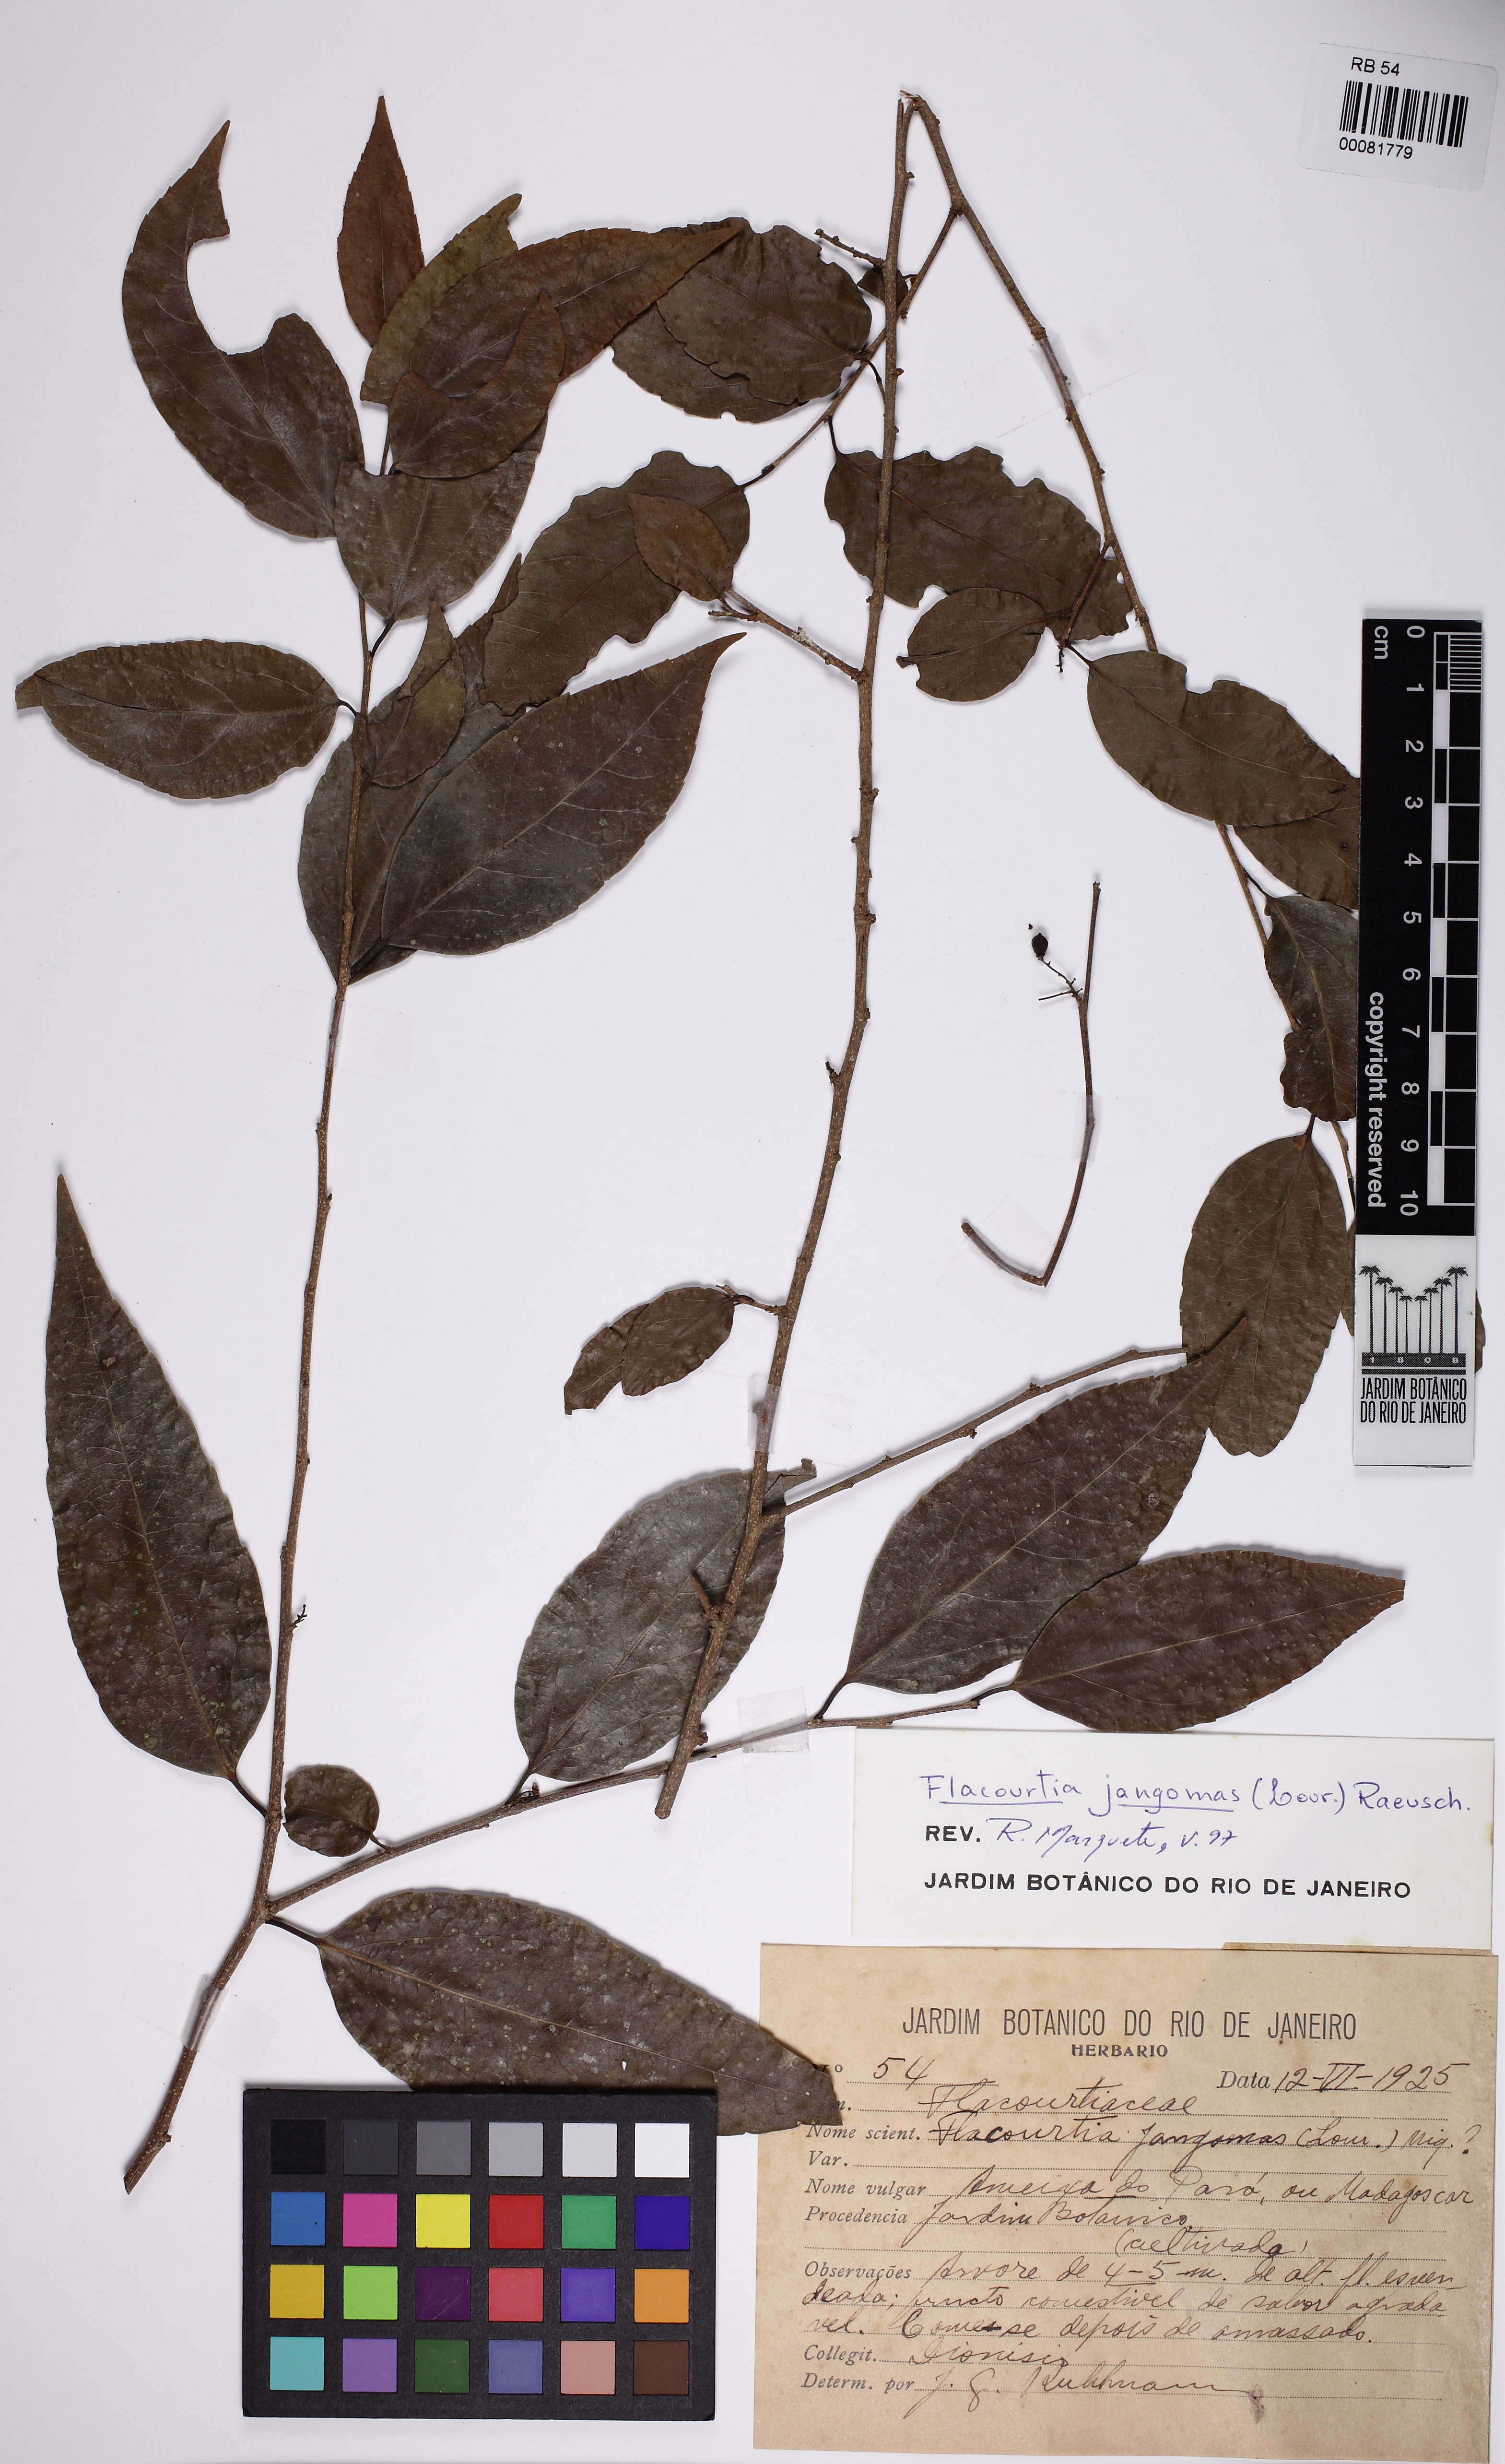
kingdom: Plantae
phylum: Tracheophyta
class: Magnoliopsida
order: Malpighiales
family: Salicaceae
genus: Flacourtia
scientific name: Flacourtia jangomas
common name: Indian-plum
